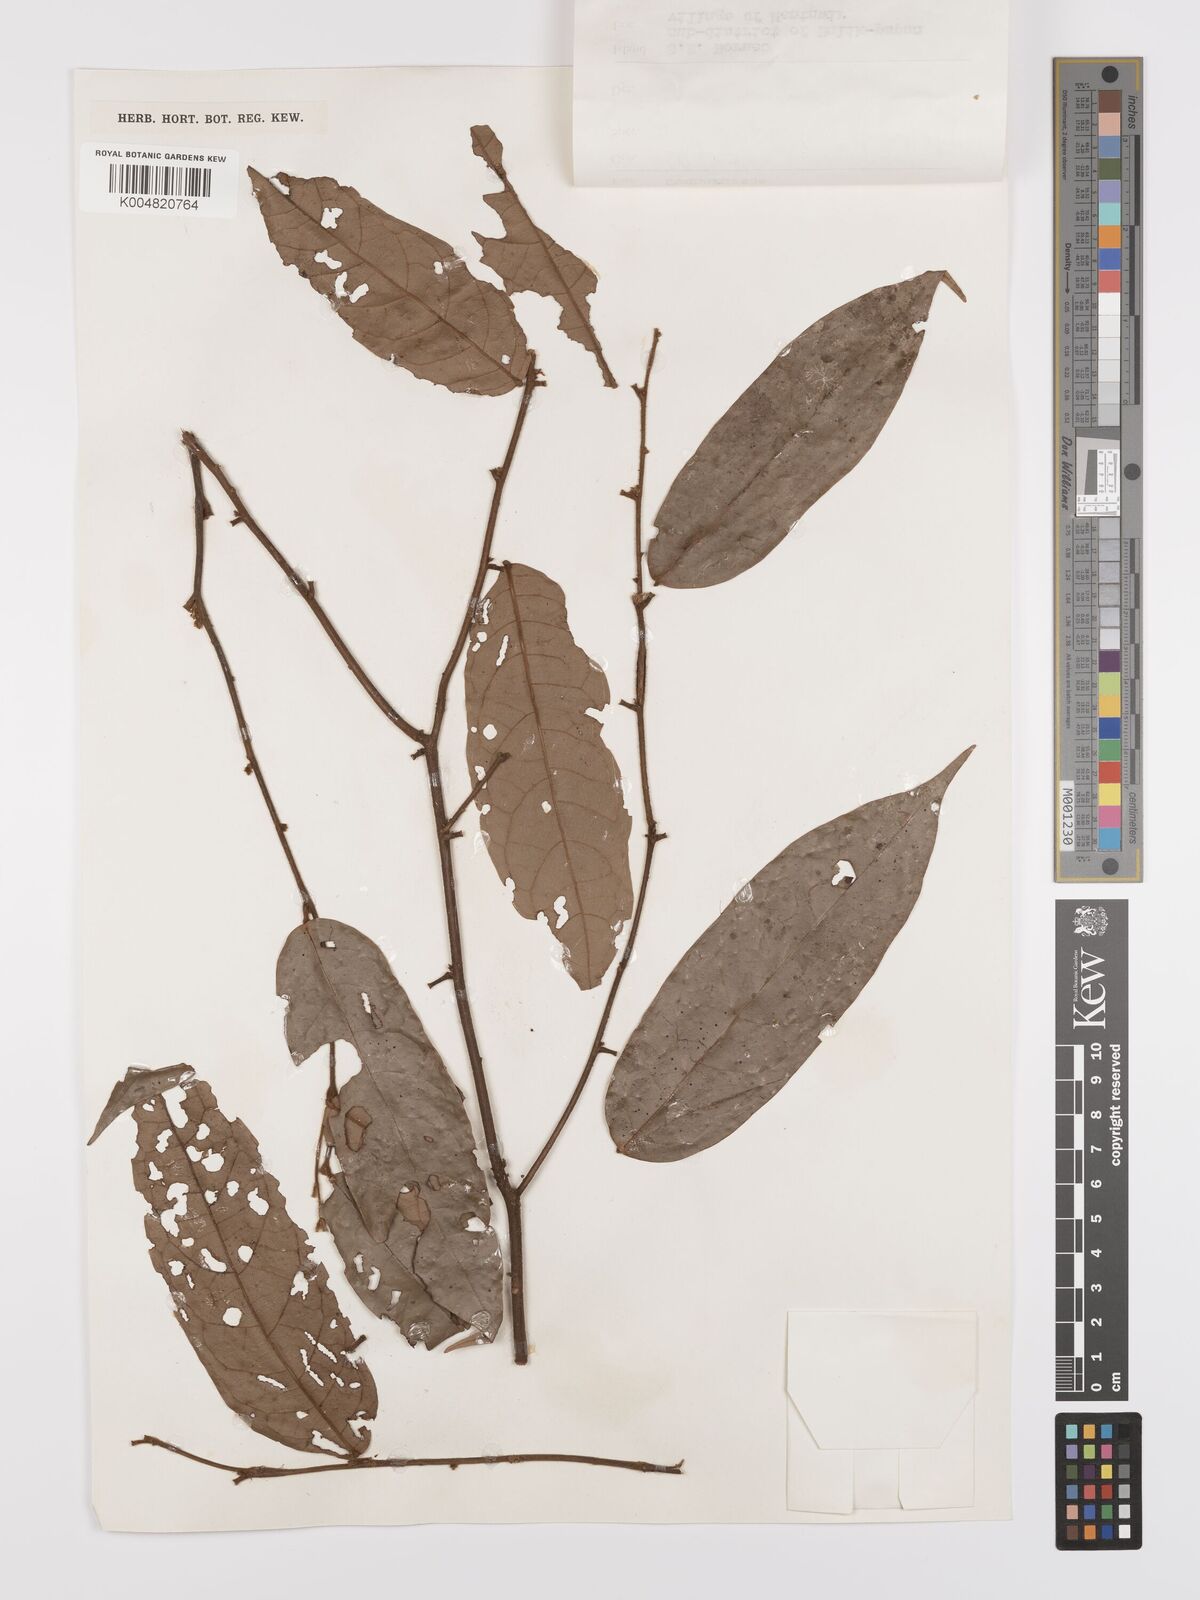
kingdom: Plantae
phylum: Tracheophyta
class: Magnoliopsida
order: Oxalidales
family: Connaraceae
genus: Ellipanthus
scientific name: Ellipanthus beccarii
